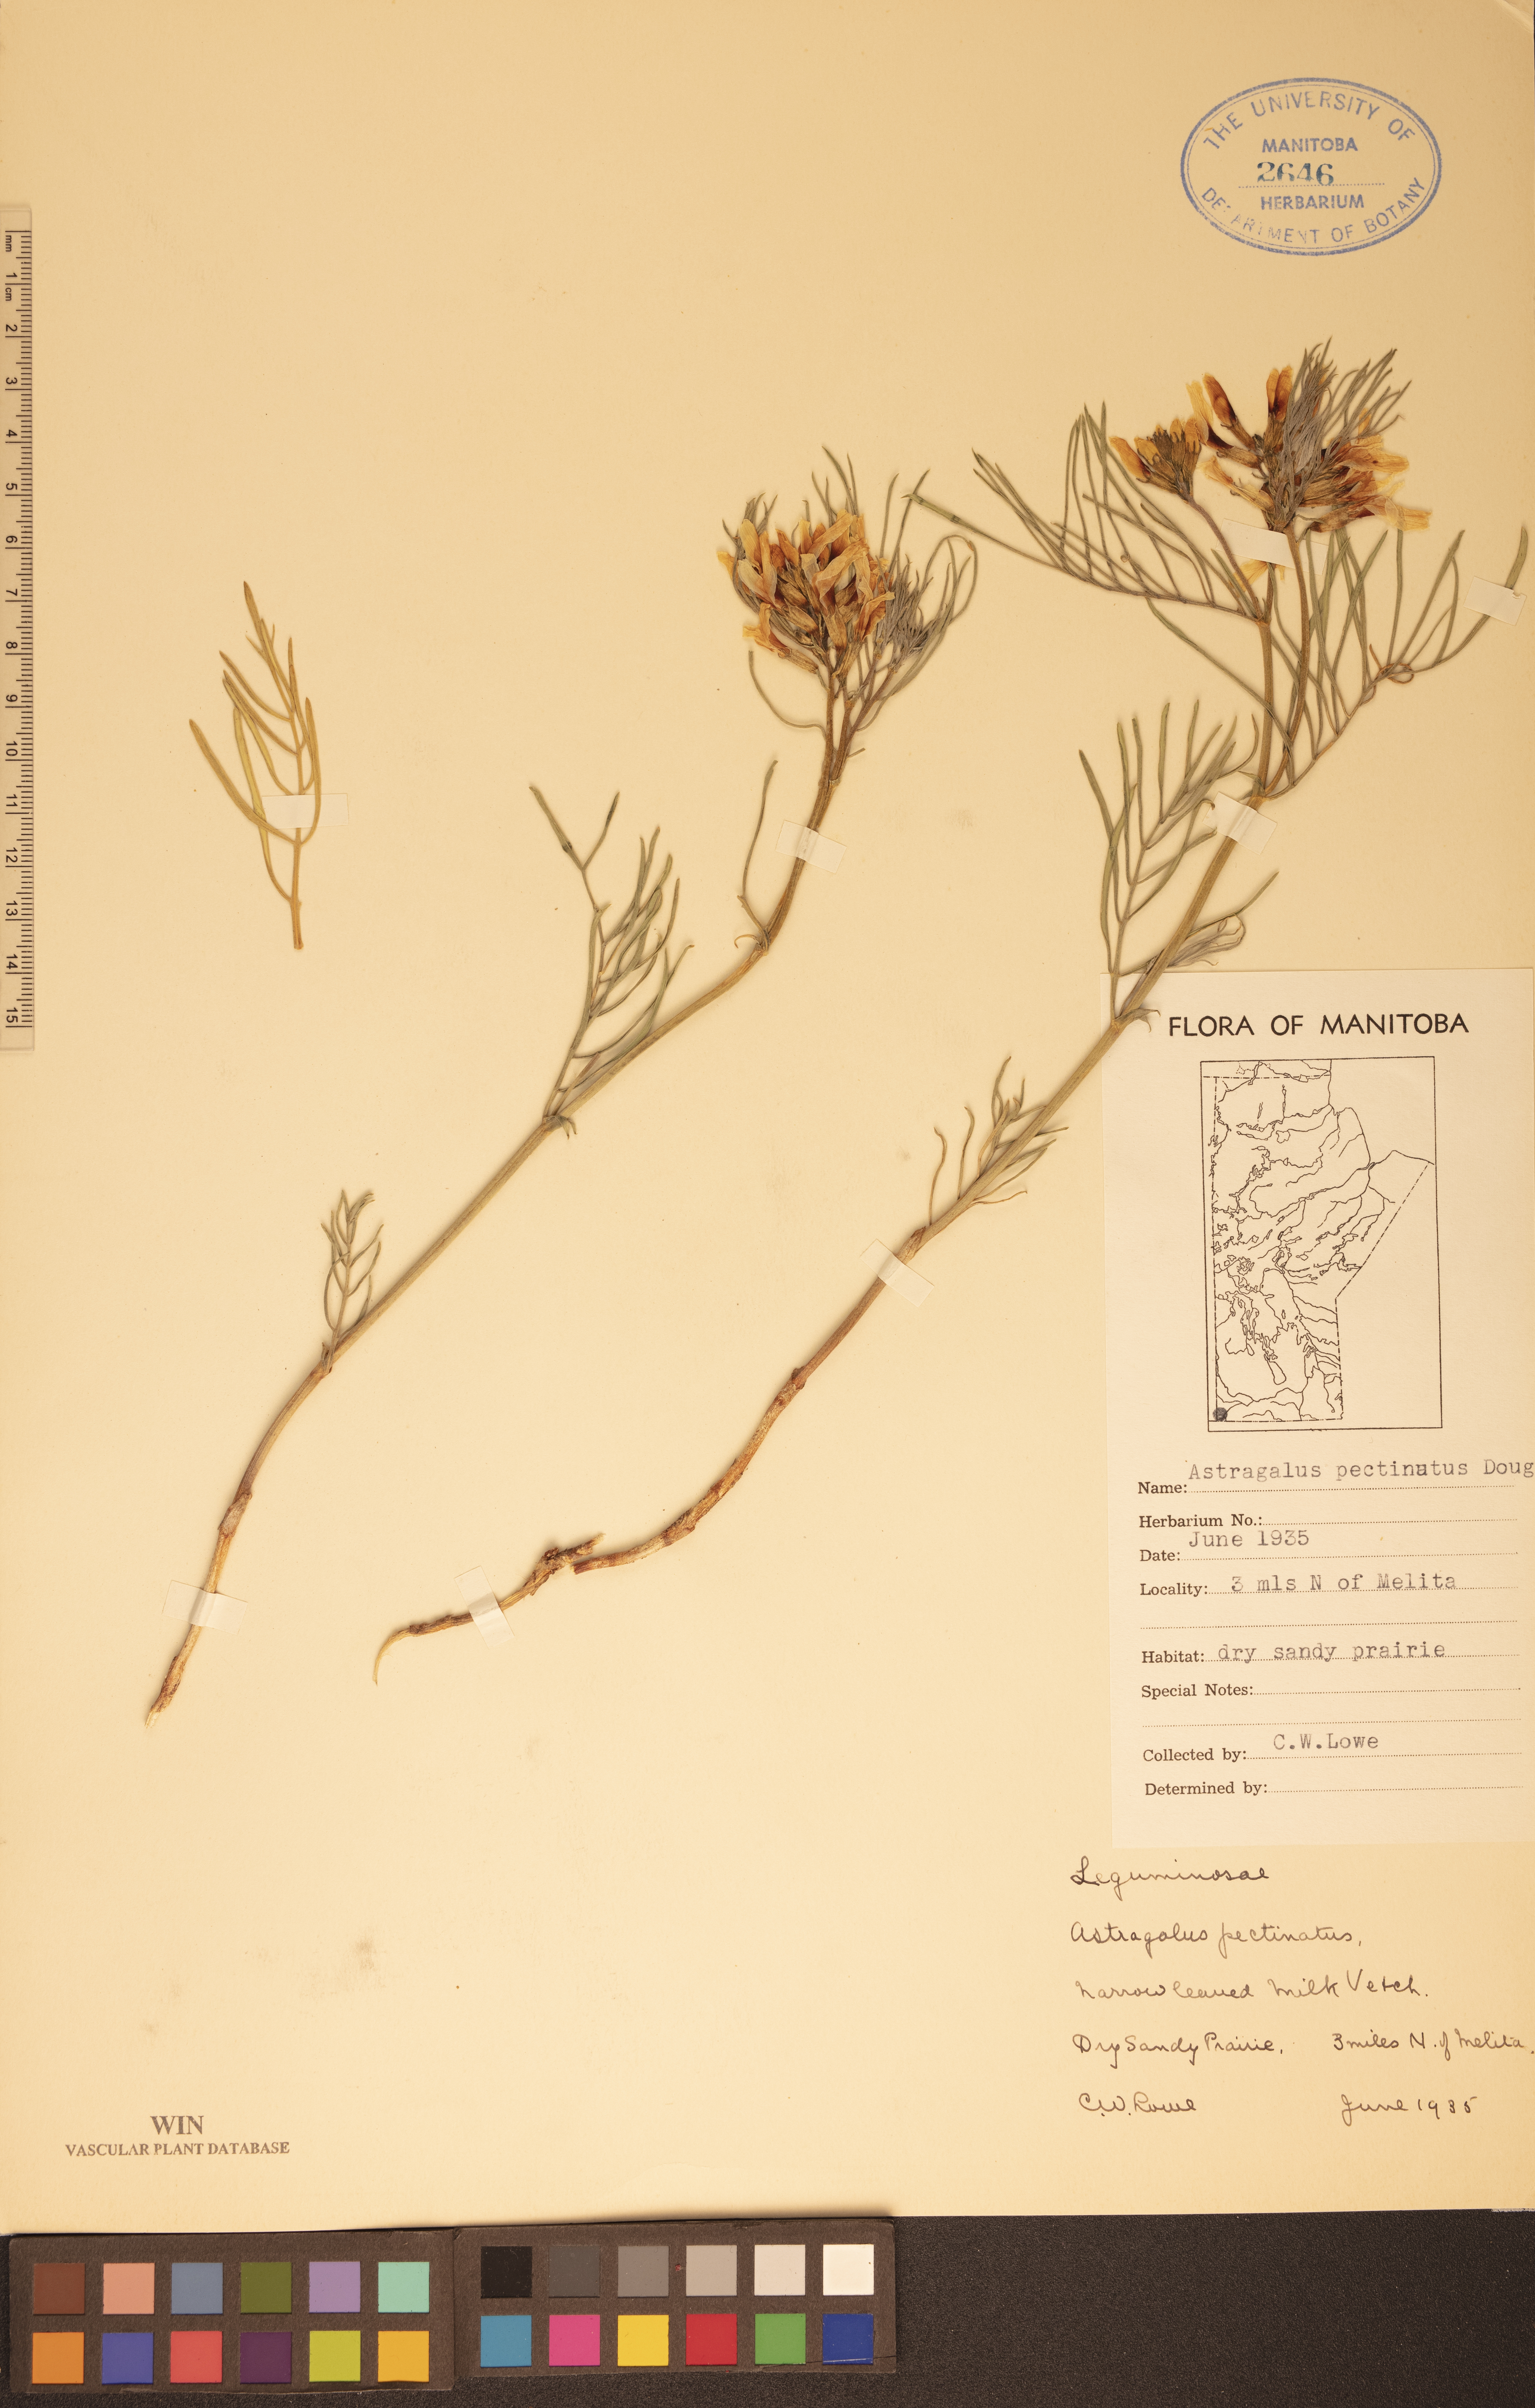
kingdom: Plantae
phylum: Tracheophyta
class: Magnoliopsida
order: Fabales
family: Fabaceae
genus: Astragalus
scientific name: Astragalus pectinatus
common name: Tine-leaf milk-vetch
